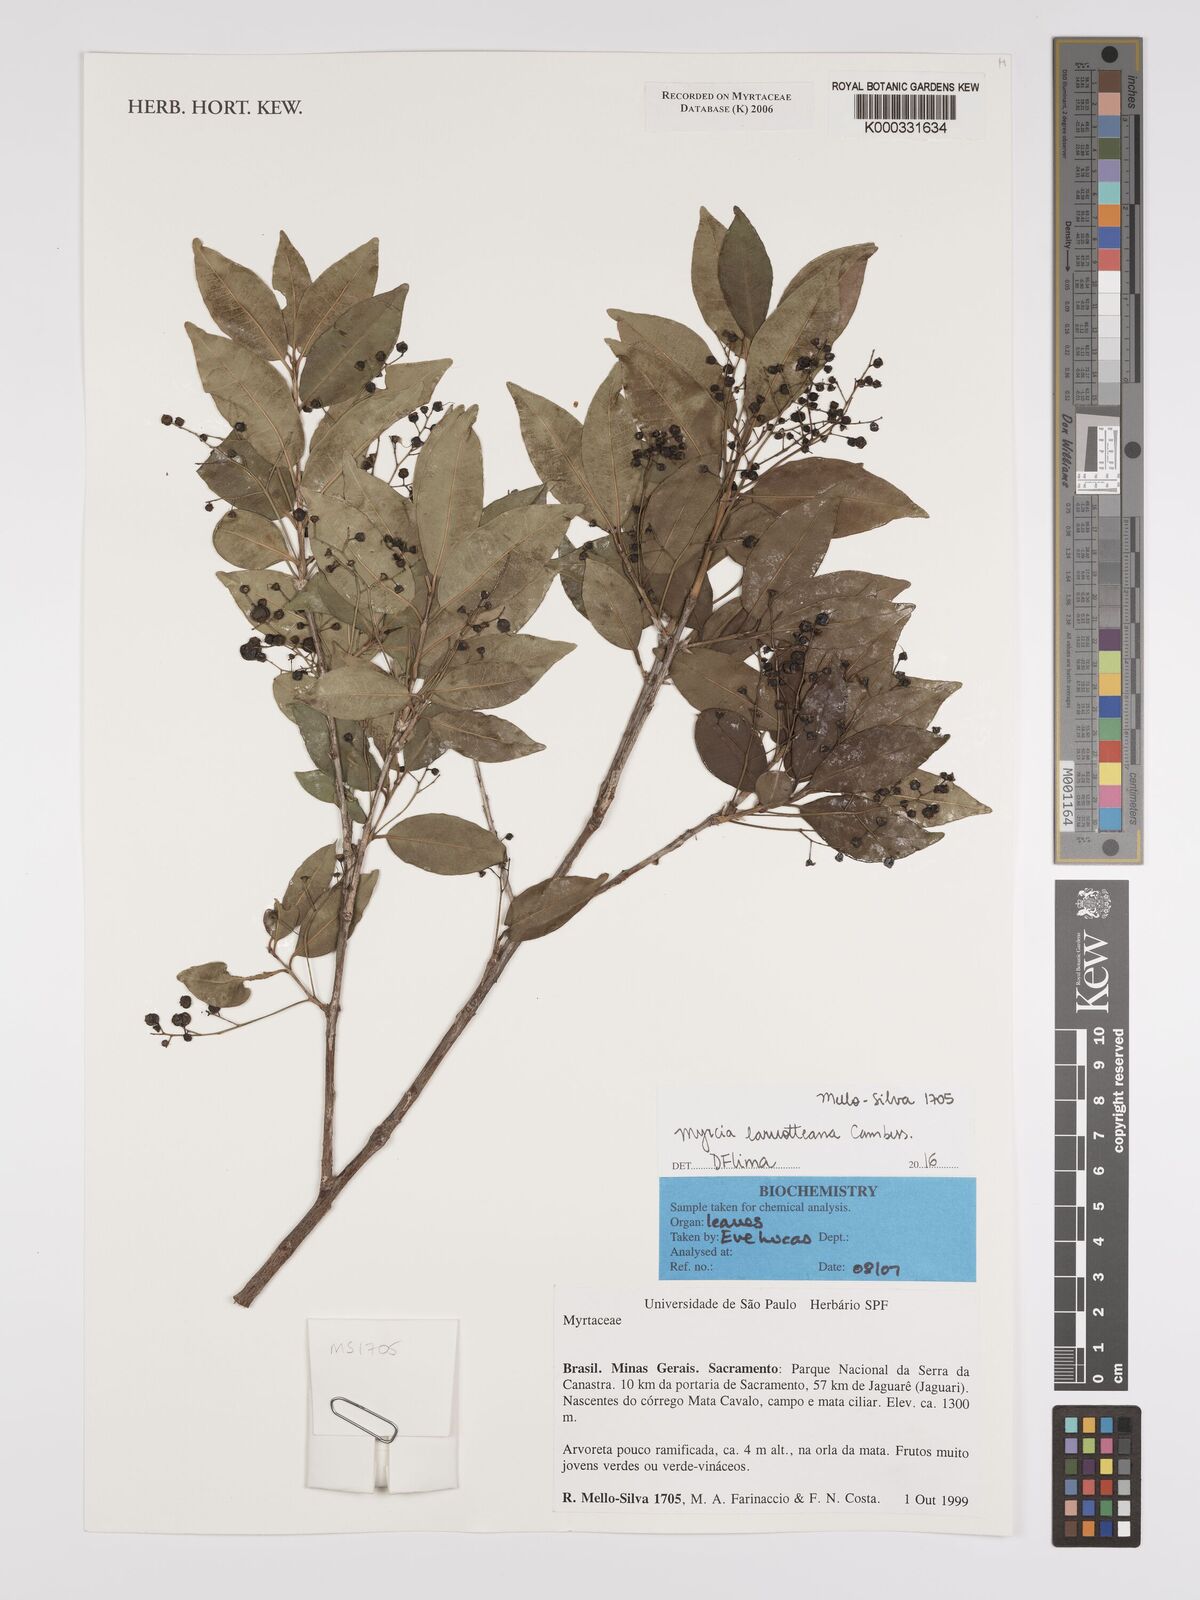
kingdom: Plantae
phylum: Tracheophyta
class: Magnoliopsida
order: Myrtales
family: Myrtaceae
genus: Myrcia
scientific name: Myrcia laruotteana
